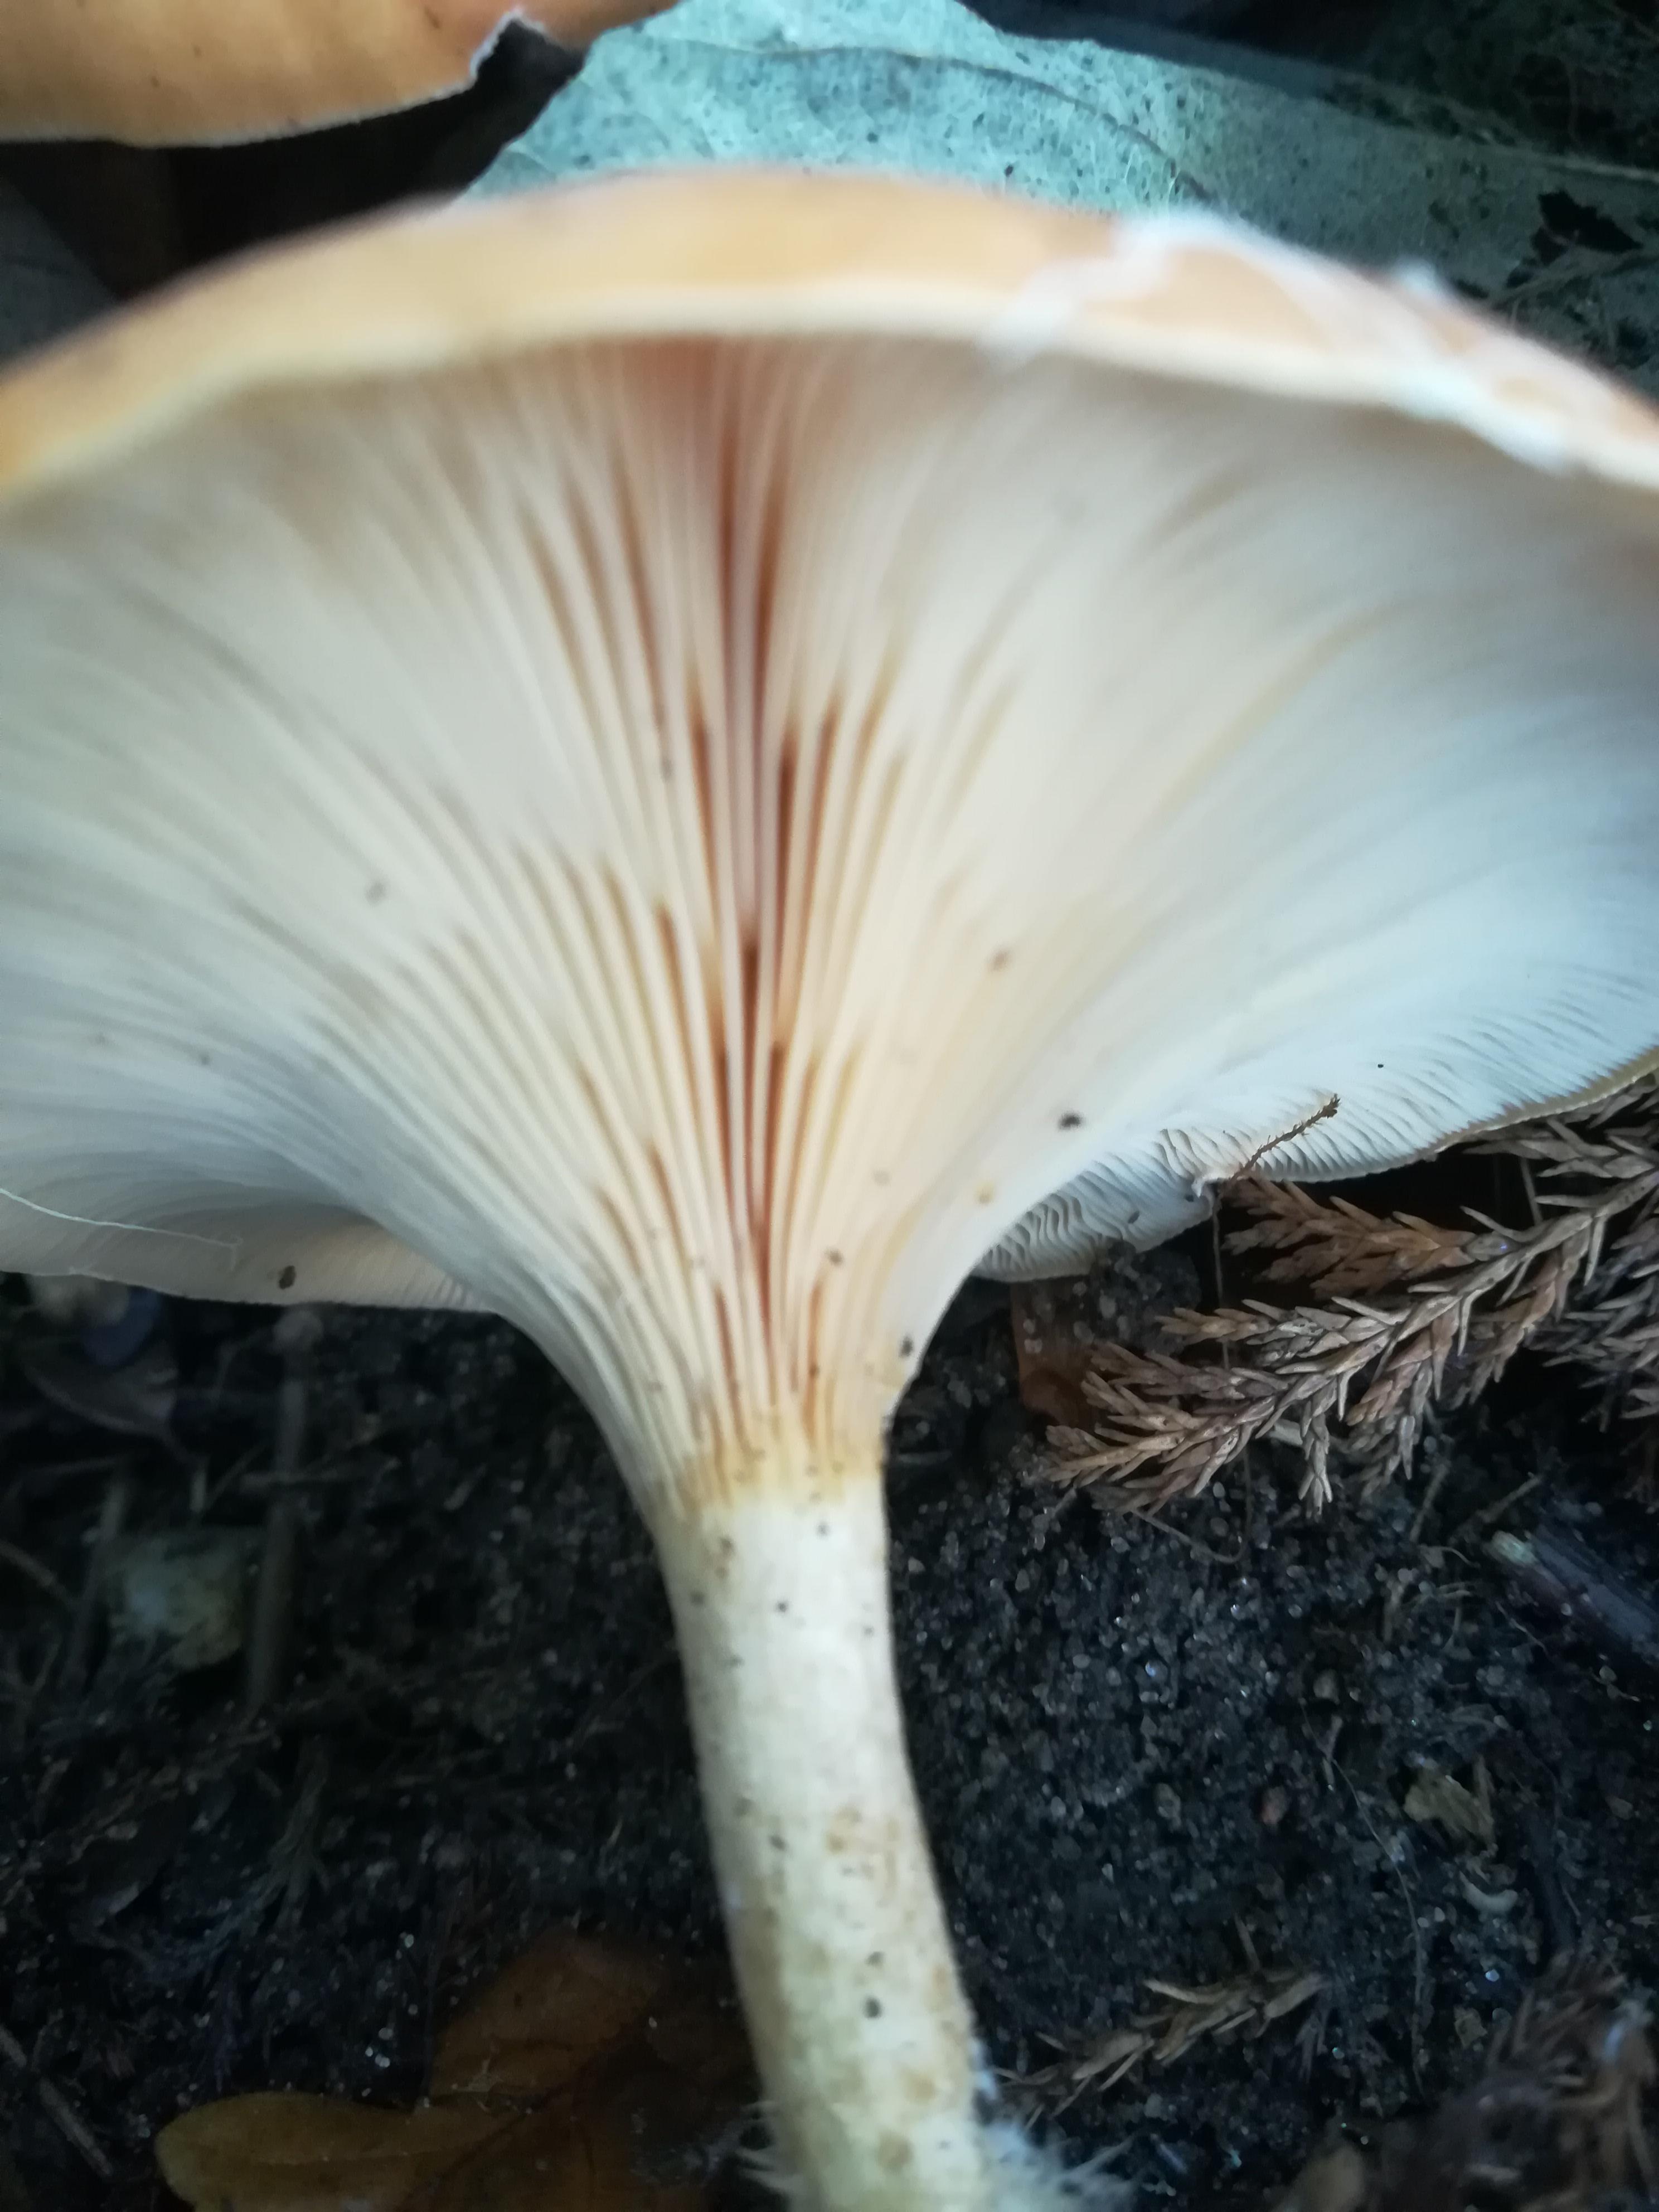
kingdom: Fungi
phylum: Basidiomycota
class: Agaricomycetes
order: Agaricales
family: Tricholomataceae
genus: Paralepista
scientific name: Paralepista flaccida
